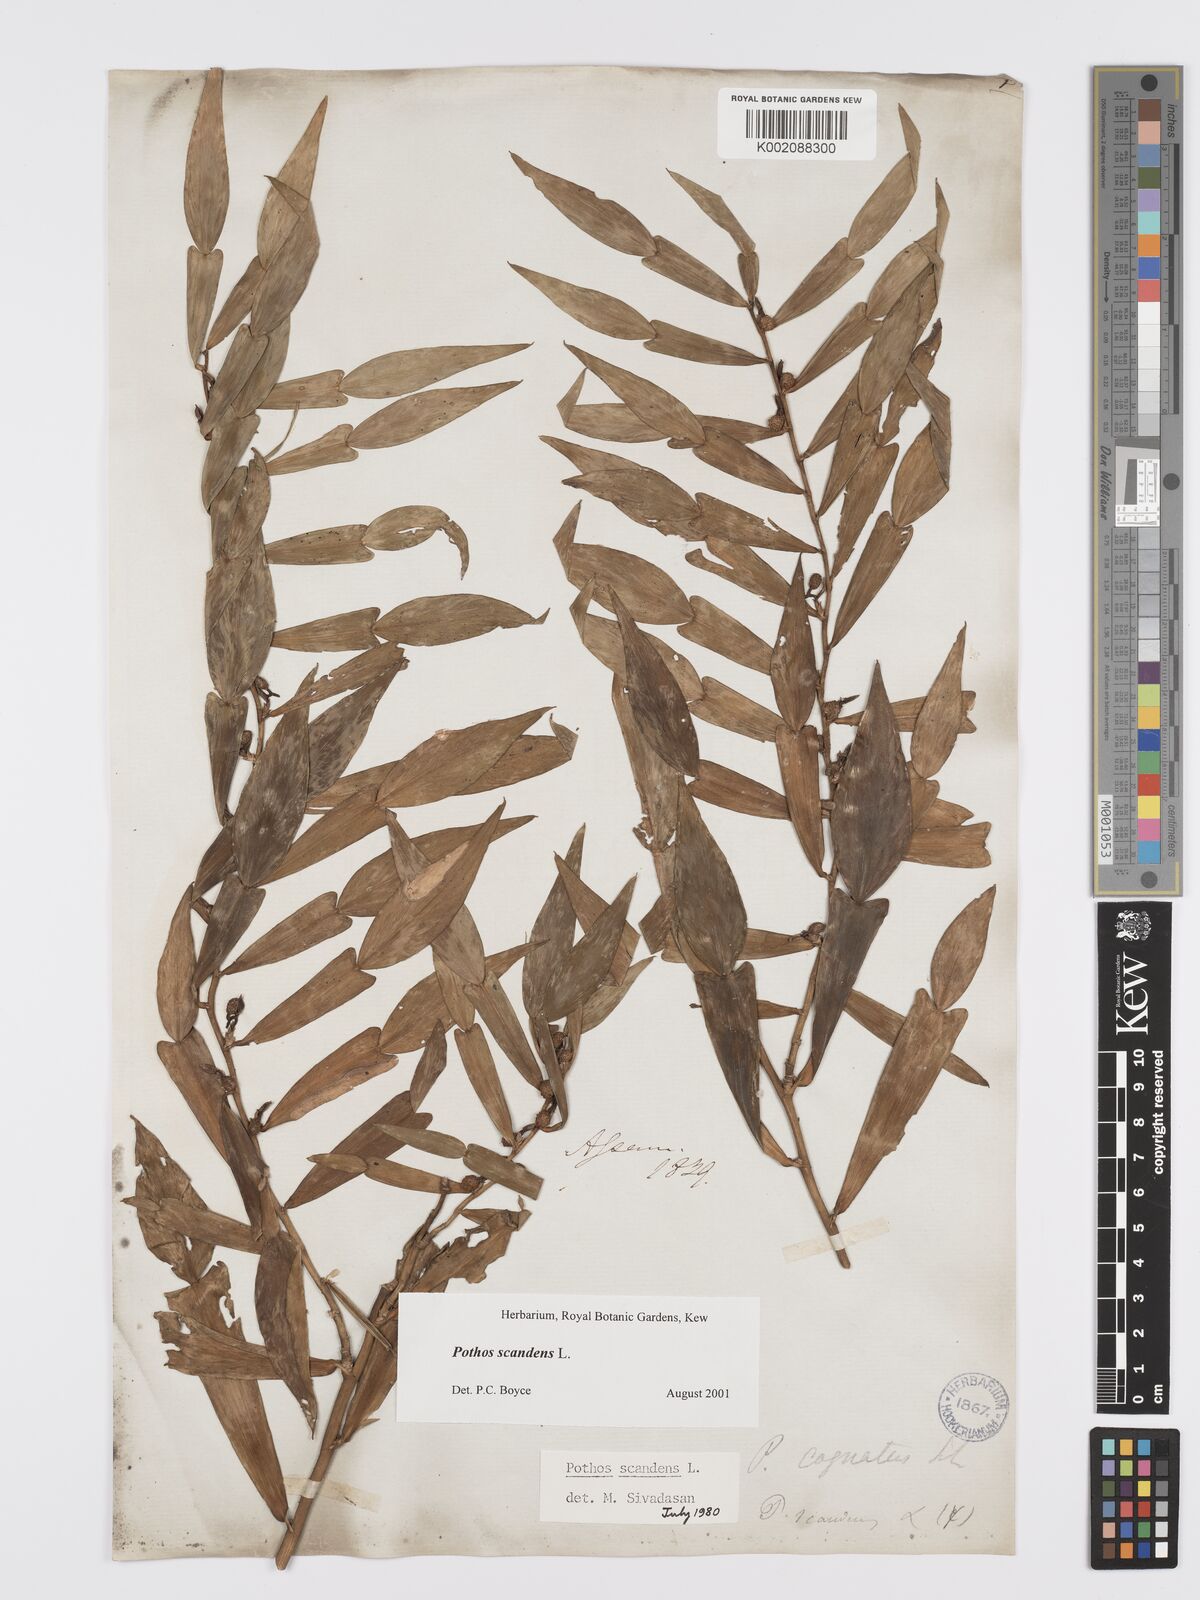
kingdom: Plantae
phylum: Tracheophyta
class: Liliopsida
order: Alismatales
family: Araceae
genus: Pothos
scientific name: Pothos scandens
